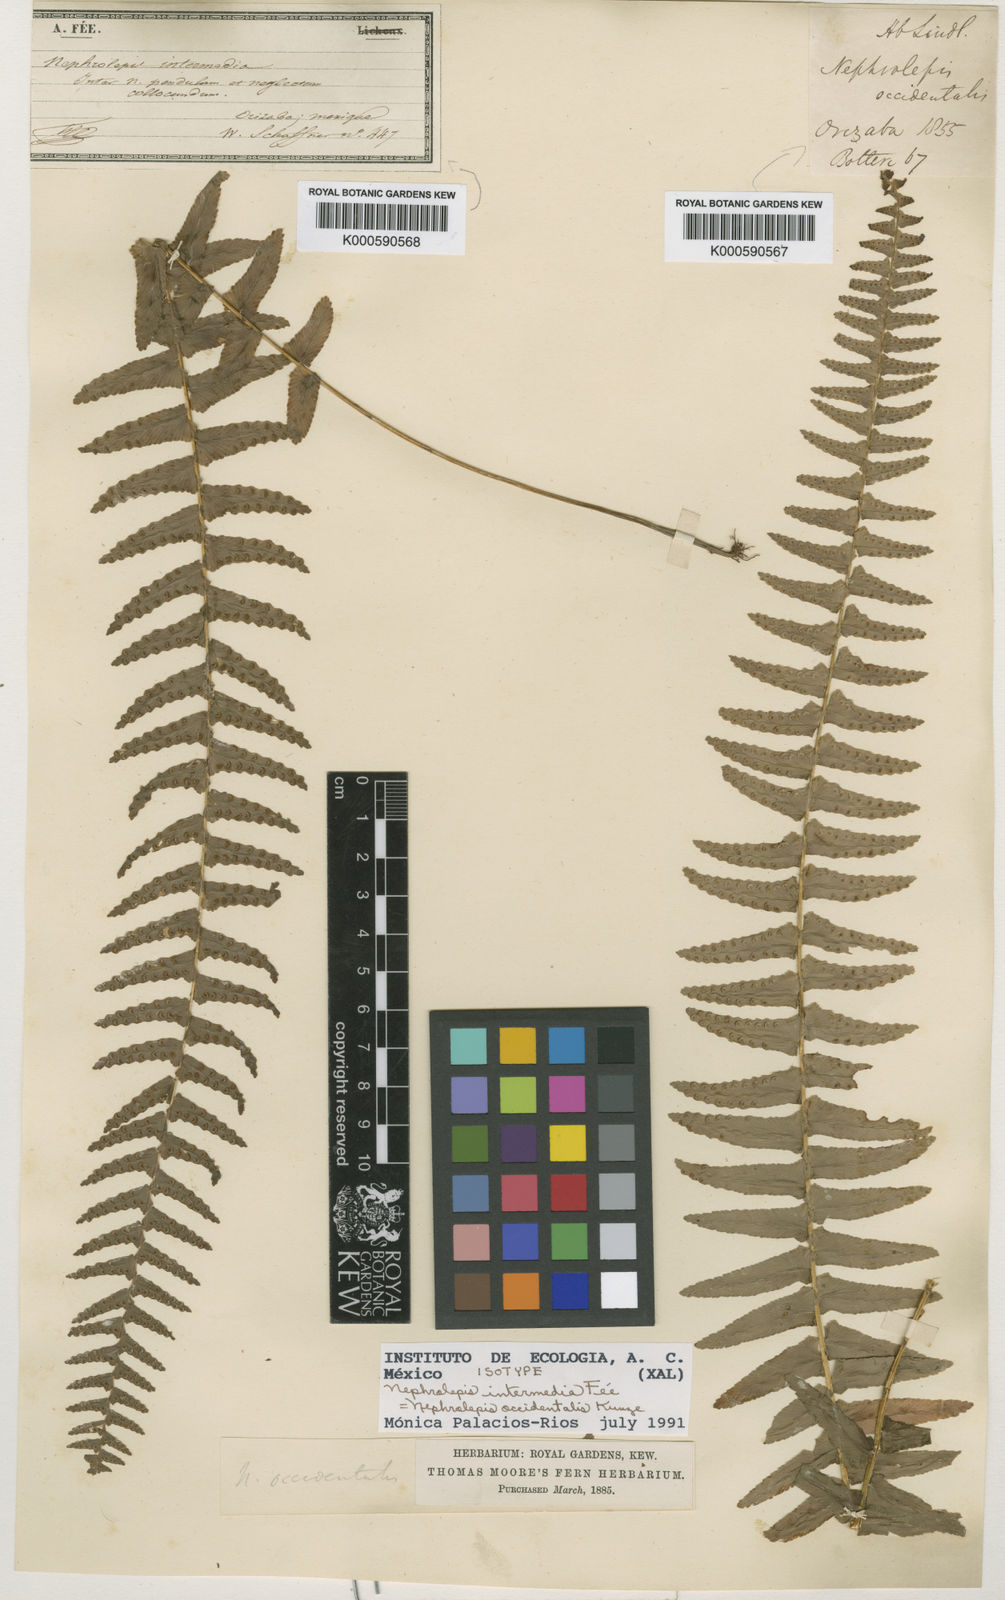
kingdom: Plantae
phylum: Tracheophyta
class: Polypodiopsida
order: Polypodiales
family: Nephrolepidaceae
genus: Nephrolepis
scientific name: Nephrolepis occidentalis
